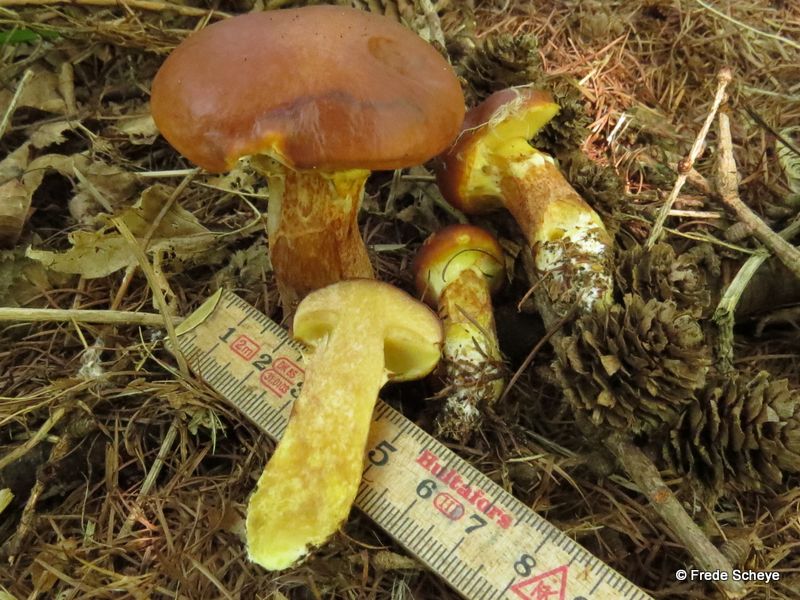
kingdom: Fungi
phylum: Basidiomycota
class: Agaricomycetes
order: Boletales
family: Suillaceae
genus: Suillus
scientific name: Suillus grevillei
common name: Larch bolete
